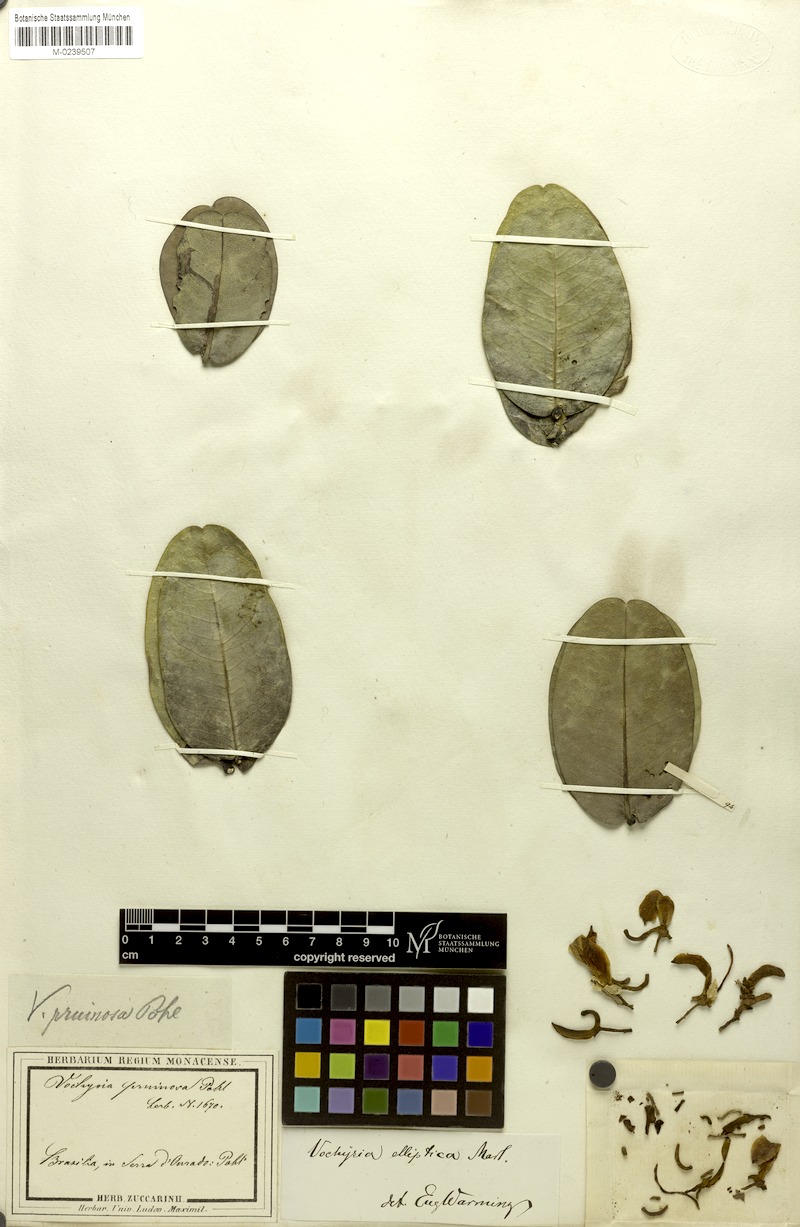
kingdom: Plantae
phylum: Tracheophyta
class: Magnoliopsida
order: Myrtales
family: Vochysiaceae
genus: Vochysia
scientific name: Vochysia elliptica
